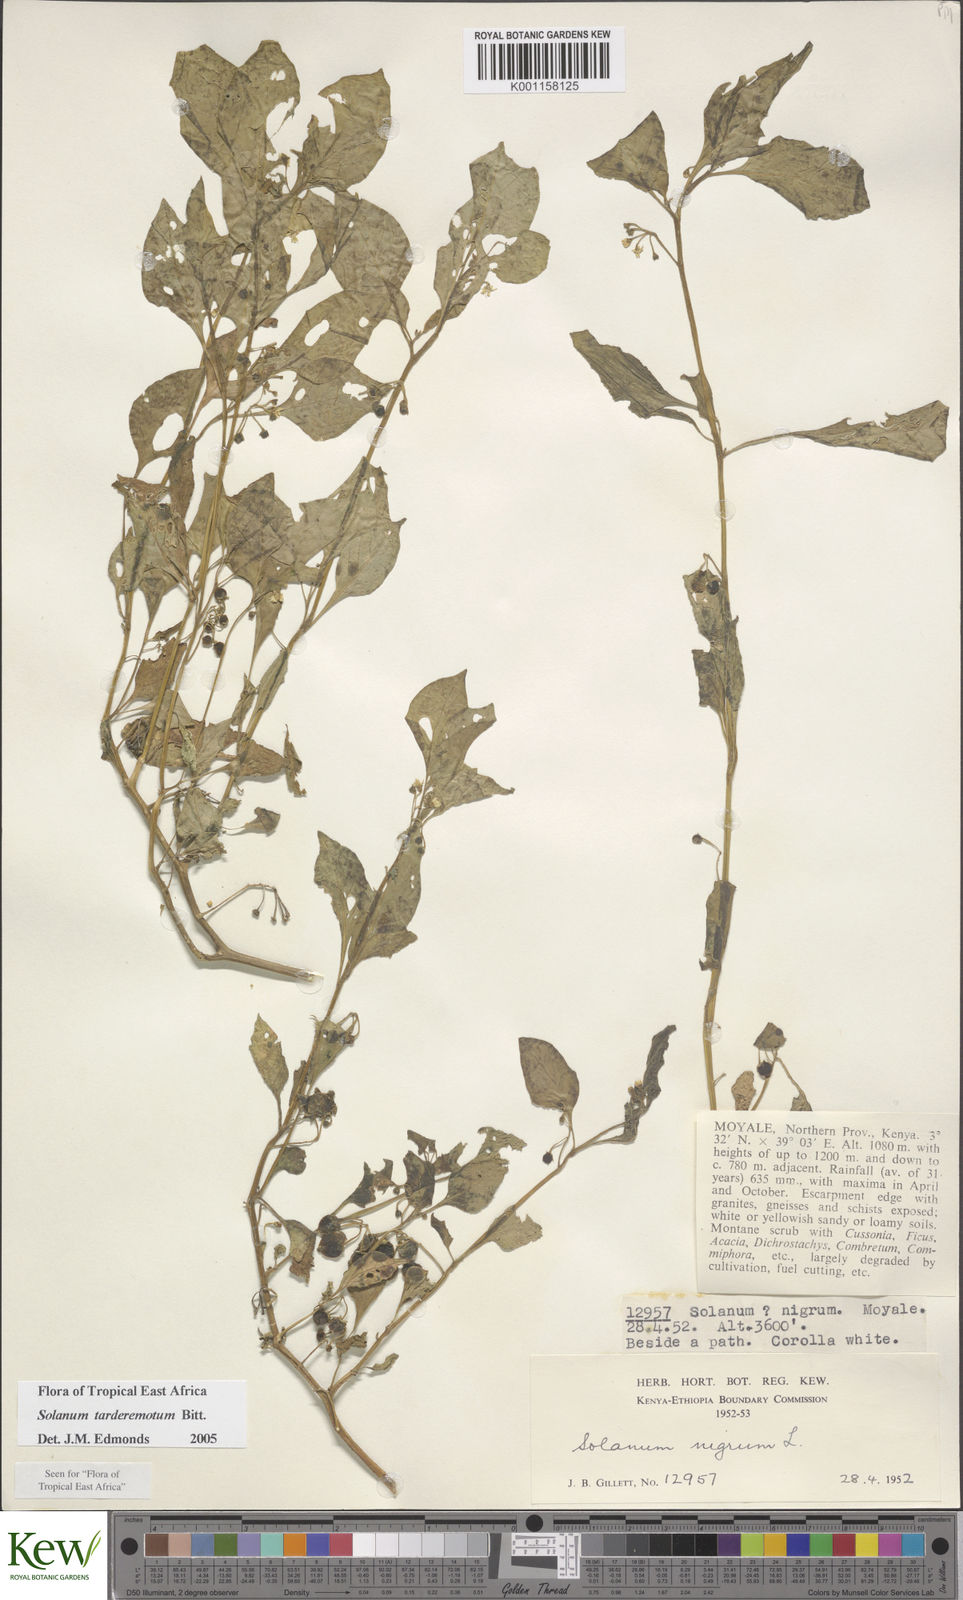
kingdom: Plantae
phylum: Tracheophyta
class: Magnoliopsida
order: Solanales
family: Solanaceae
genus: Solanum
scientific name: Solanum tarderemotum
